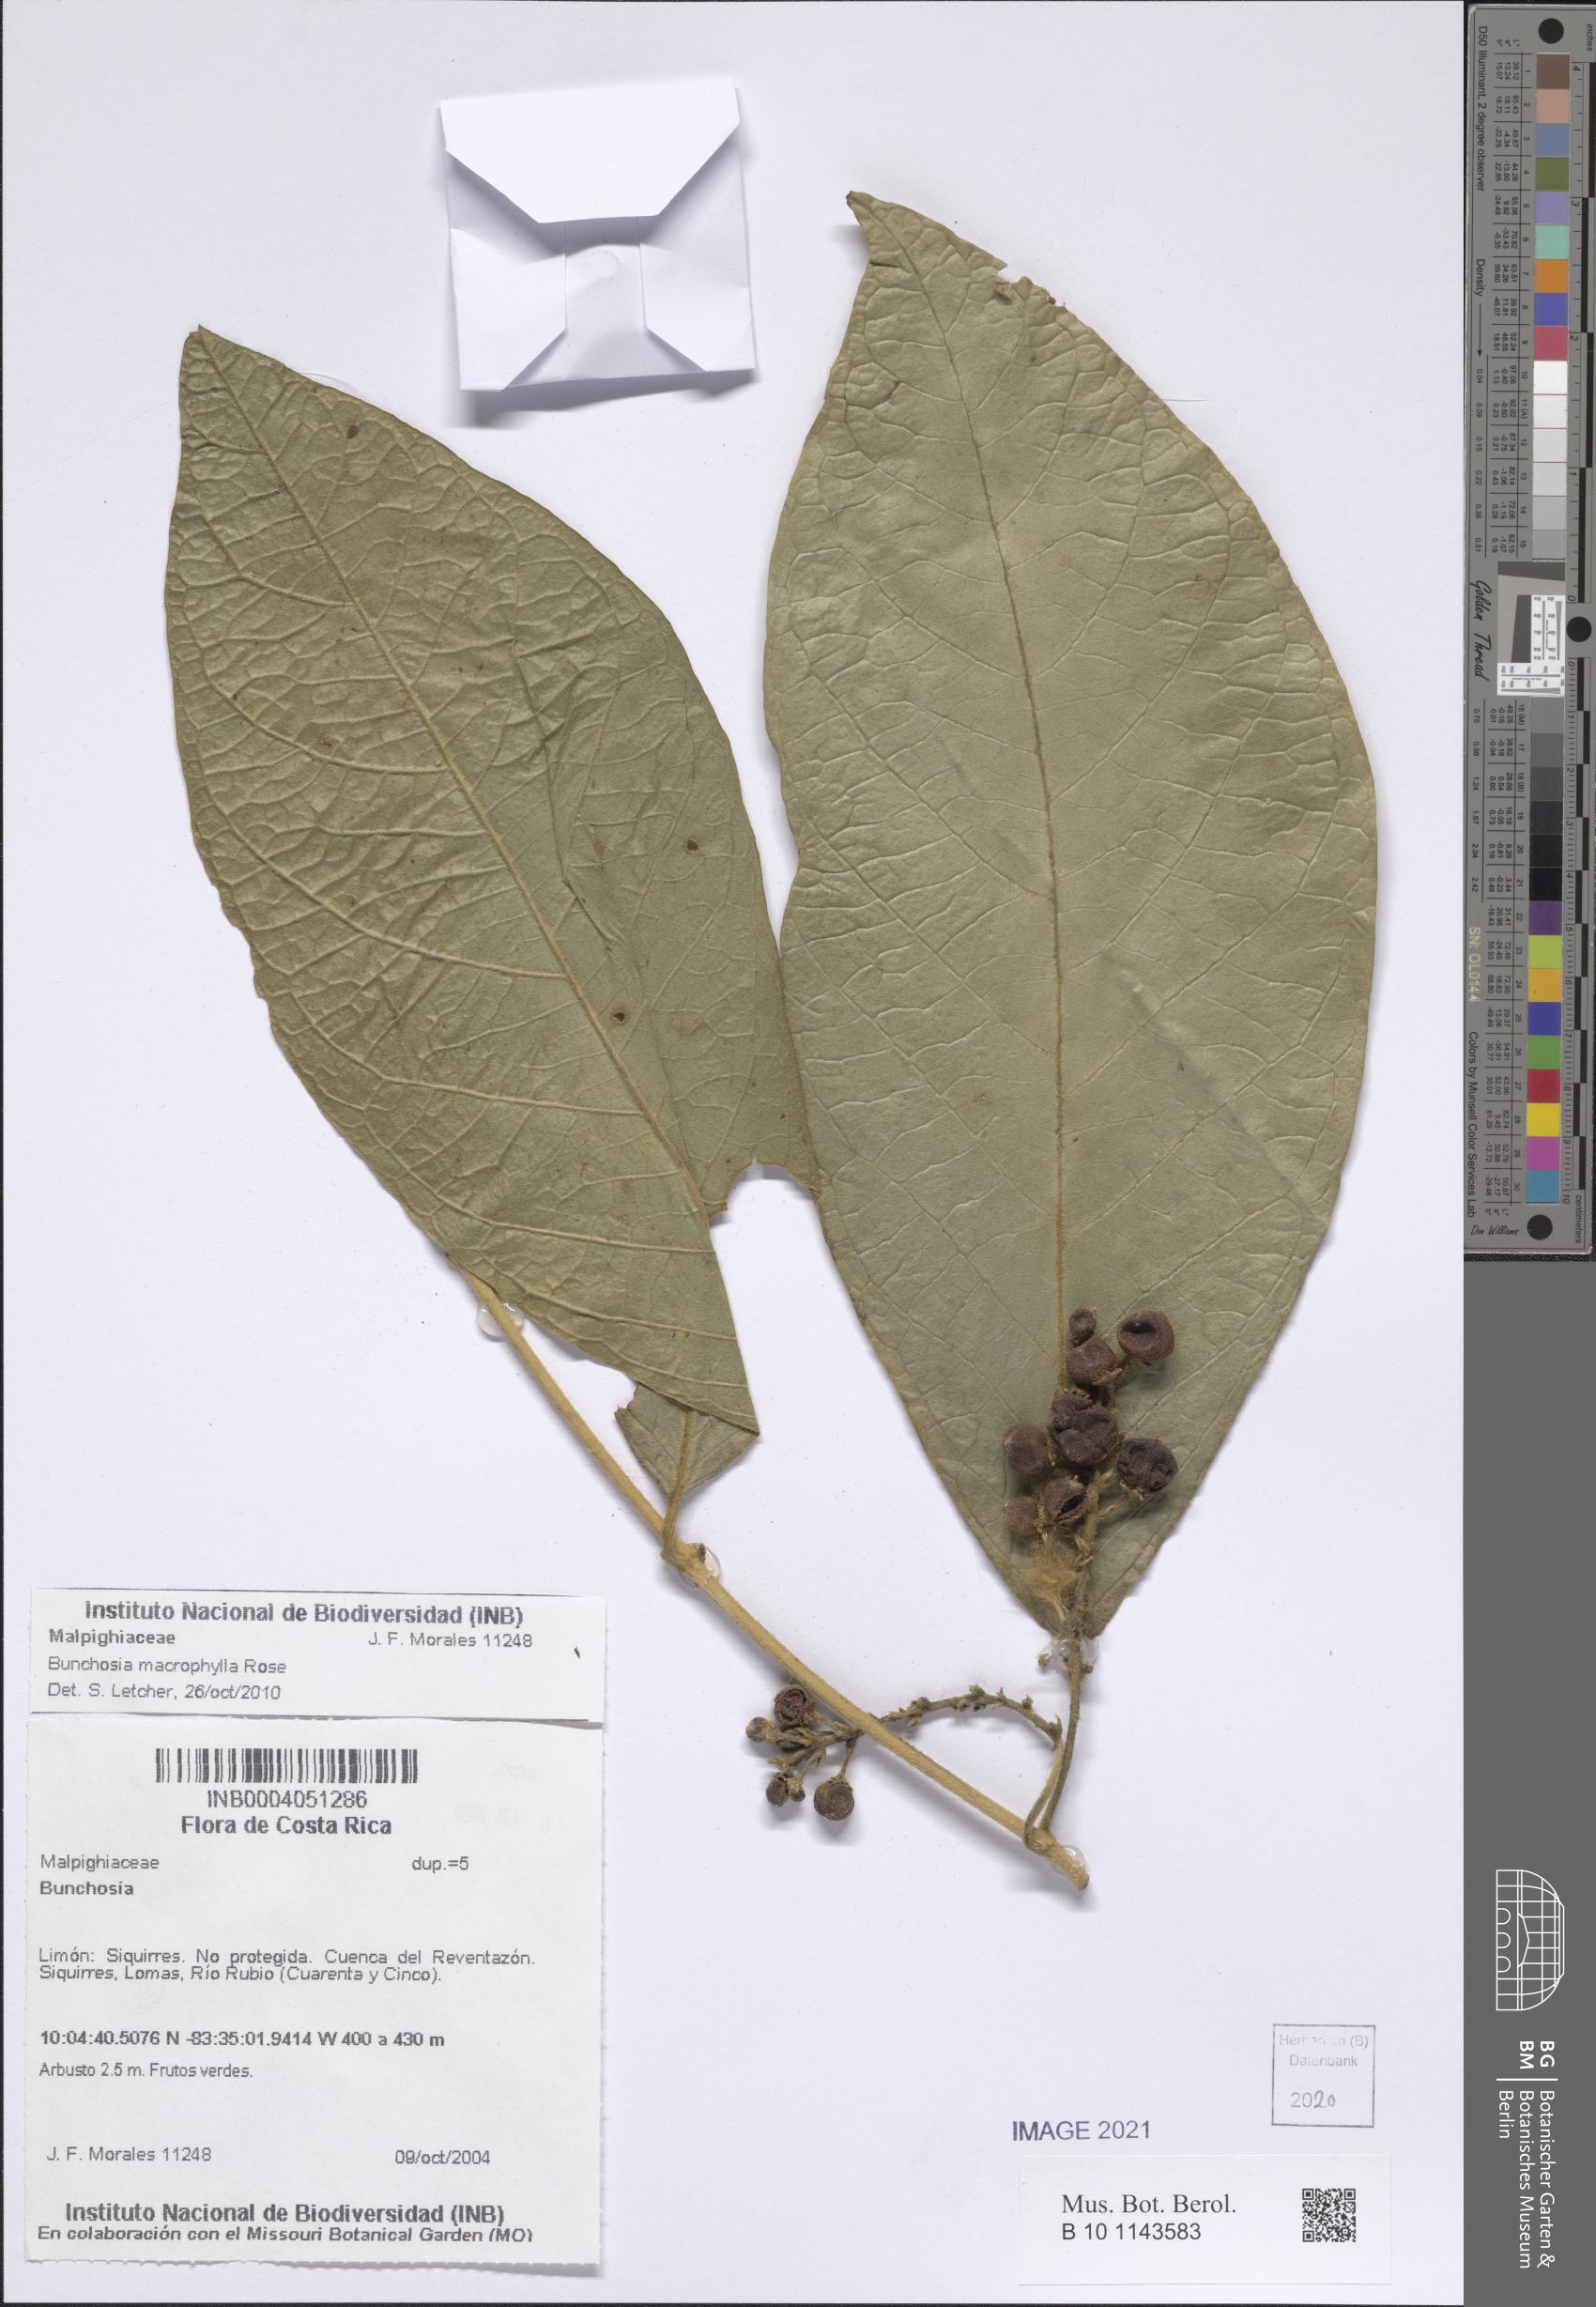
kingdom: Plantae
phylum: Tracheophyta
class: Magnoliopsida
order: Malpighiales
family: Malpighiaceae
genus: Bunchosia
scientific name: Bunchosia macrophylla
